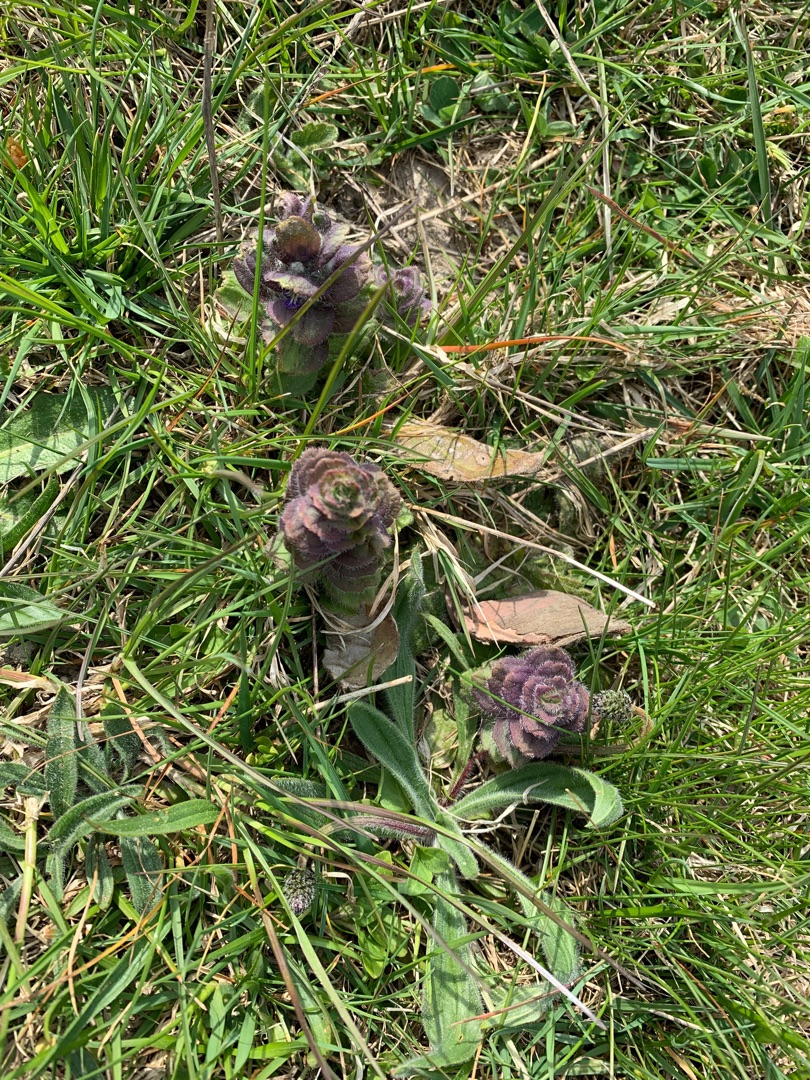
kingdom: Plantae
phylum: Tracheophyta
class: Magnoliopsida
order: Lamiales
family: Lamiaceae
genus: Ajuga
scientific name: Ajuga pyramidalis
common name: Pyramide-læbeløs
